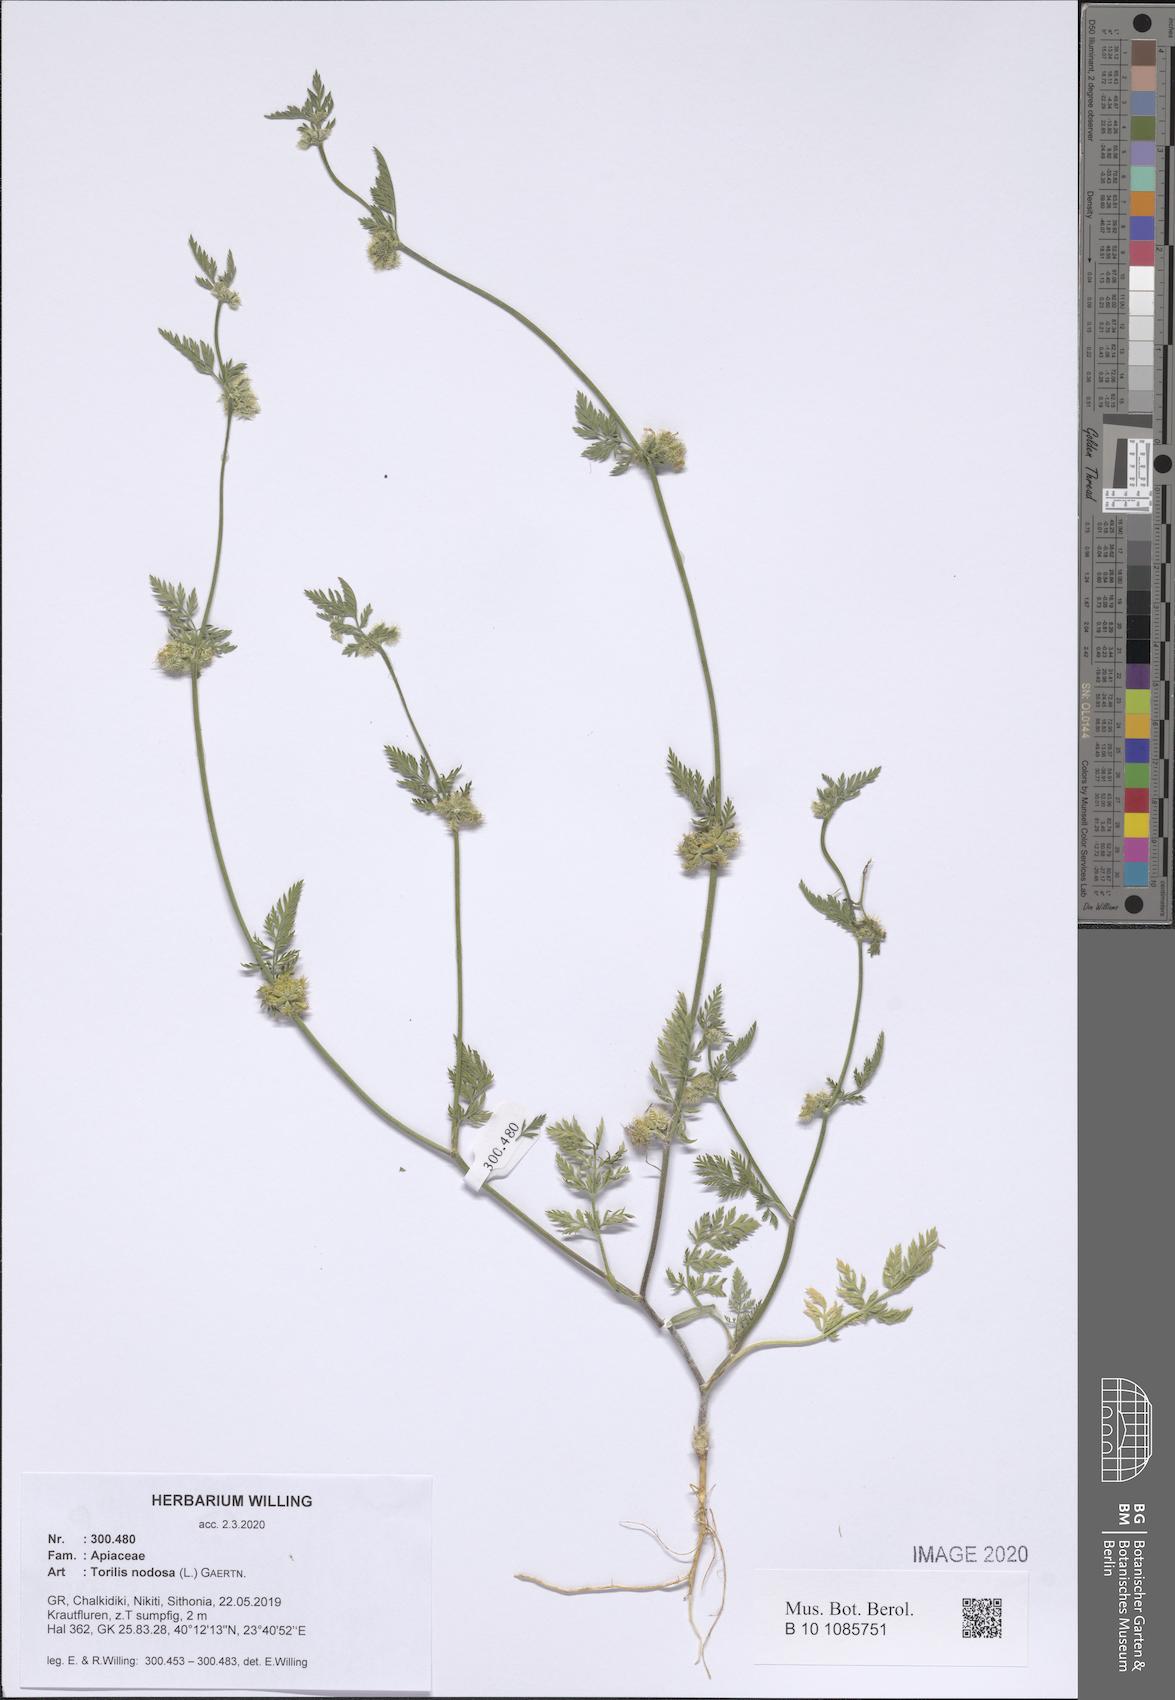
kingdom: Plantae
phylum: Tracheophyta
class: Magnoliopsida
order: Apiales
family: Apiaceae
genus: Torilis
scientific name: Torilis nodosa
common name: Knotted hedge-parsley
